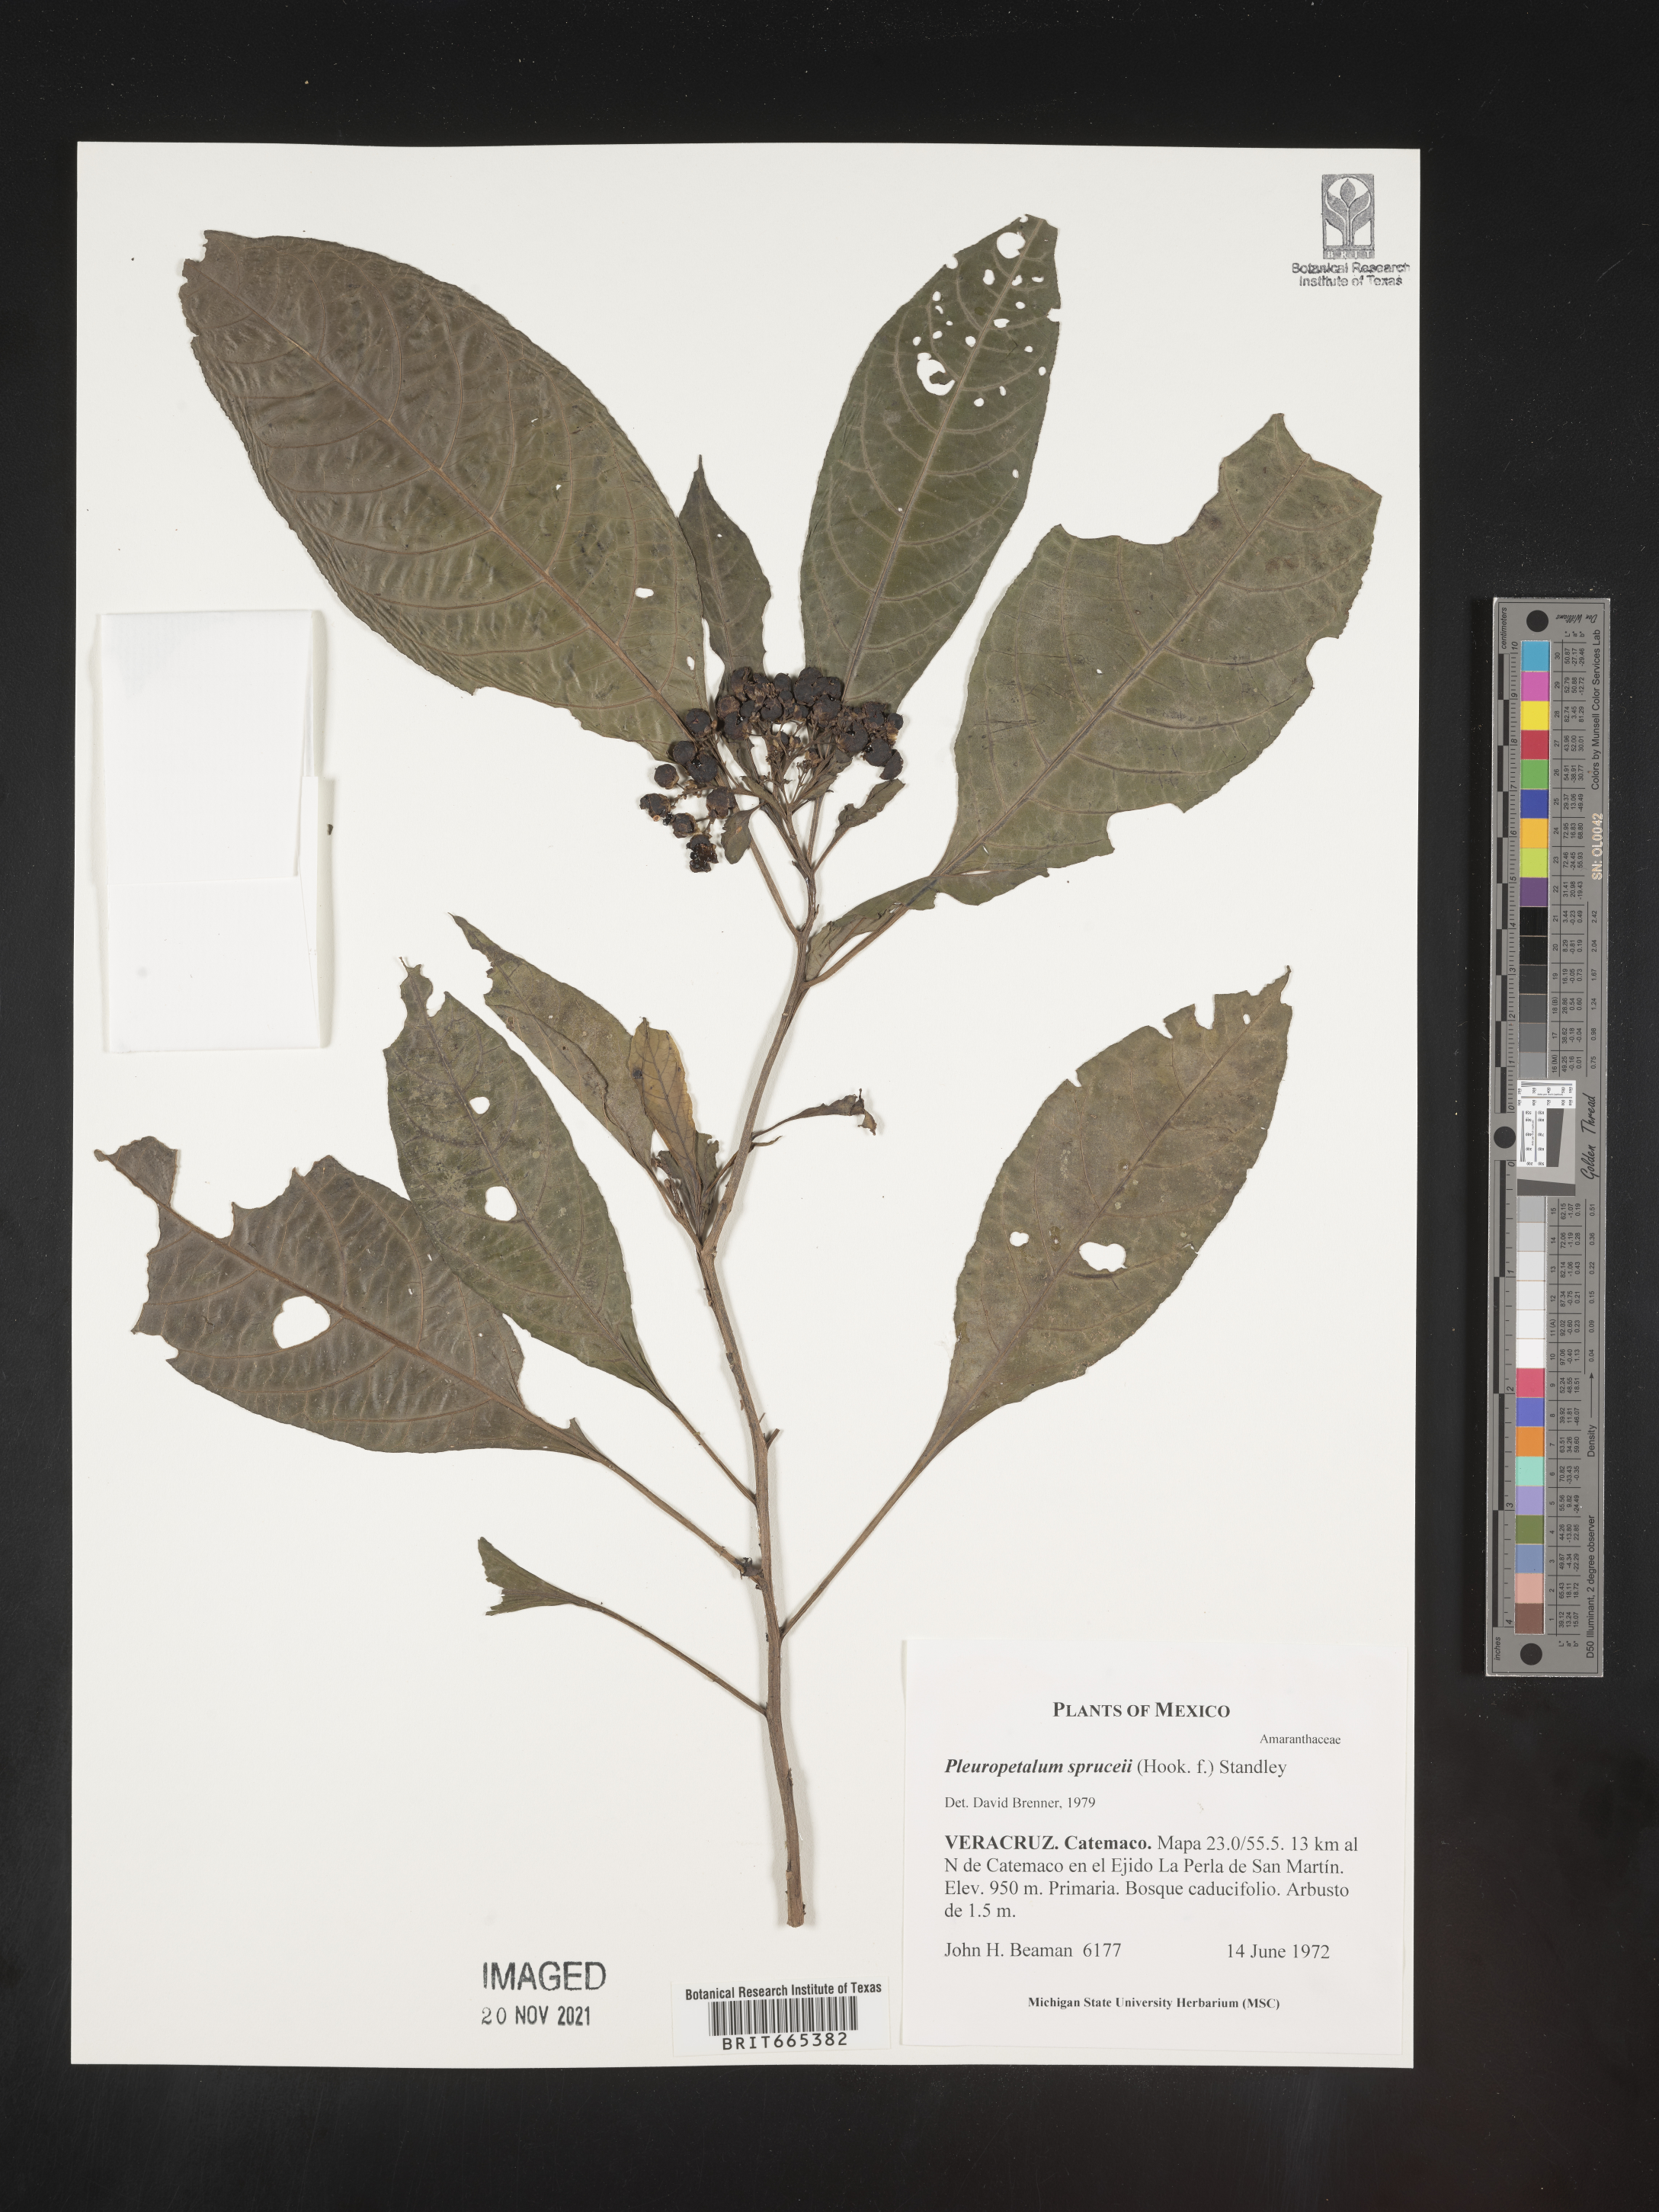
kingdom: Plantae
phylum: Tracheophyta
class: Magnoliopsida
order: Caryophyllales
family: Amaranthaceae
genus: Pleuropetalum
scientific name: Pleuropetalum
